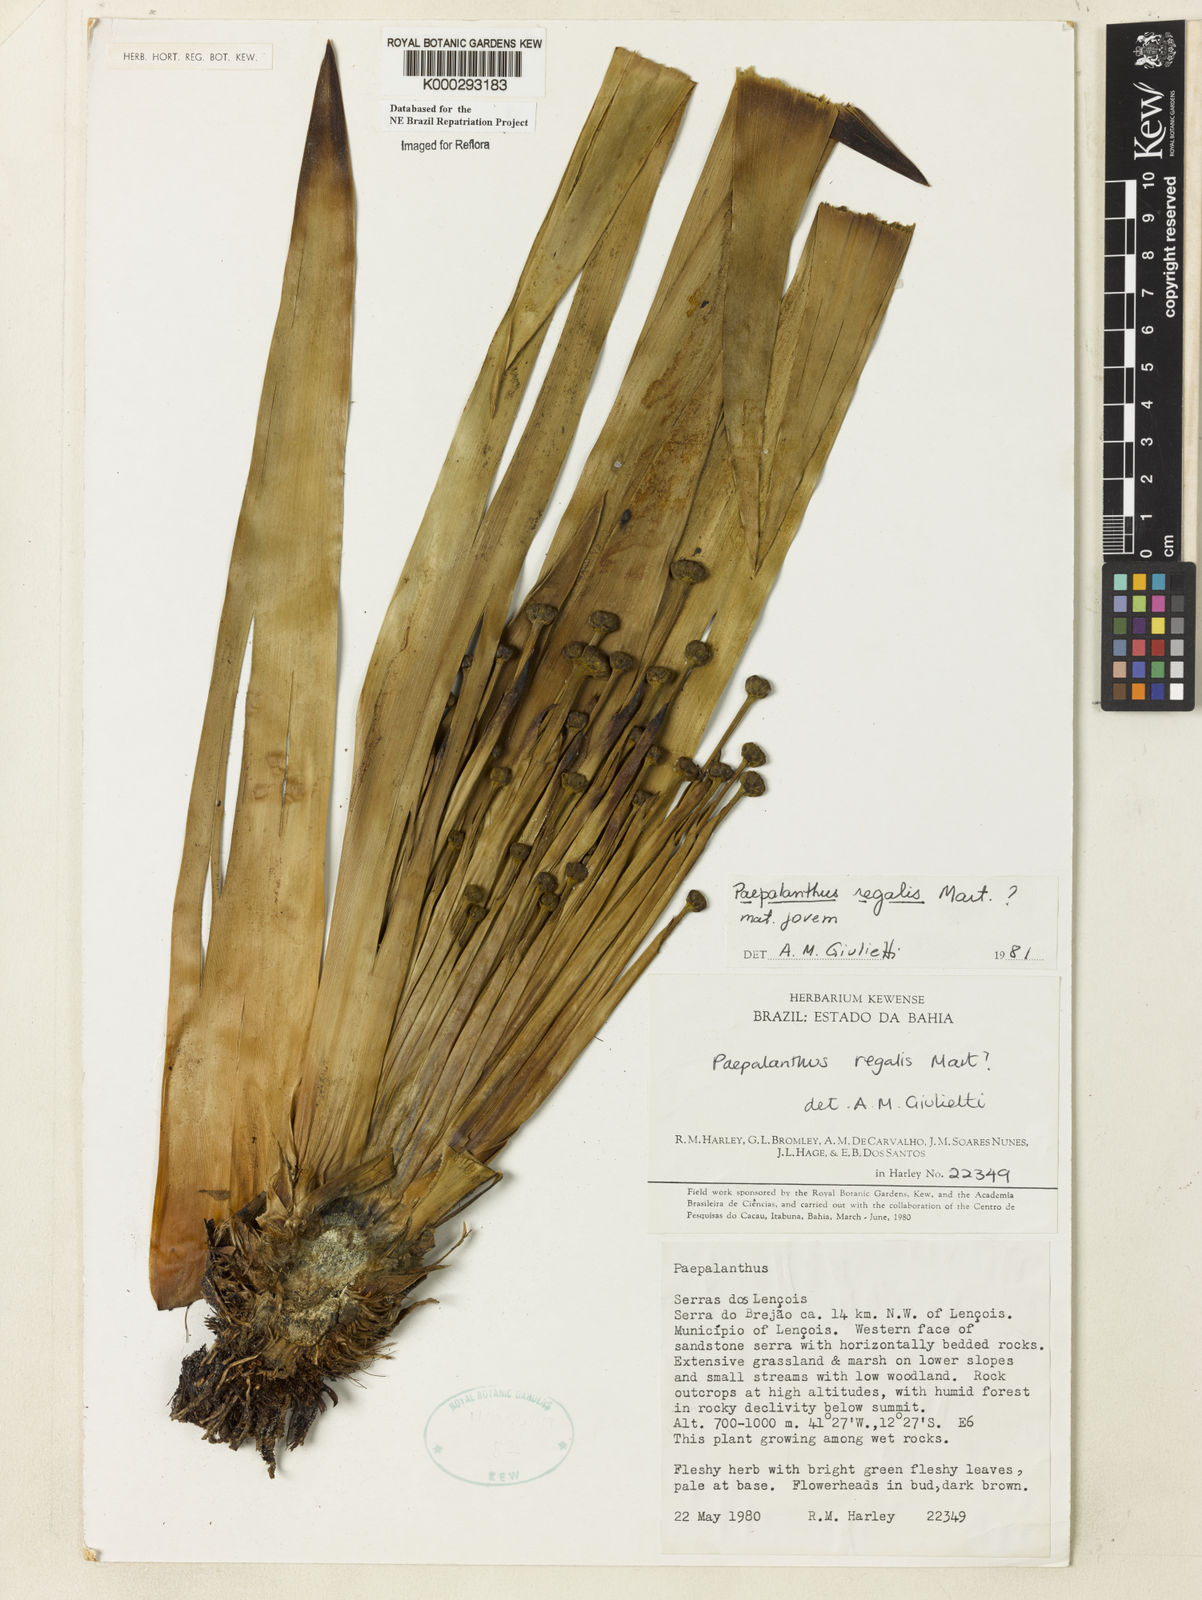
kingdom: Plantae
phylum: Tracheophyta
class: Liliopsida
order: Poales
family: Eriocaulaceae
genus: Paepalanthus
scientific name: Paepalanthus
